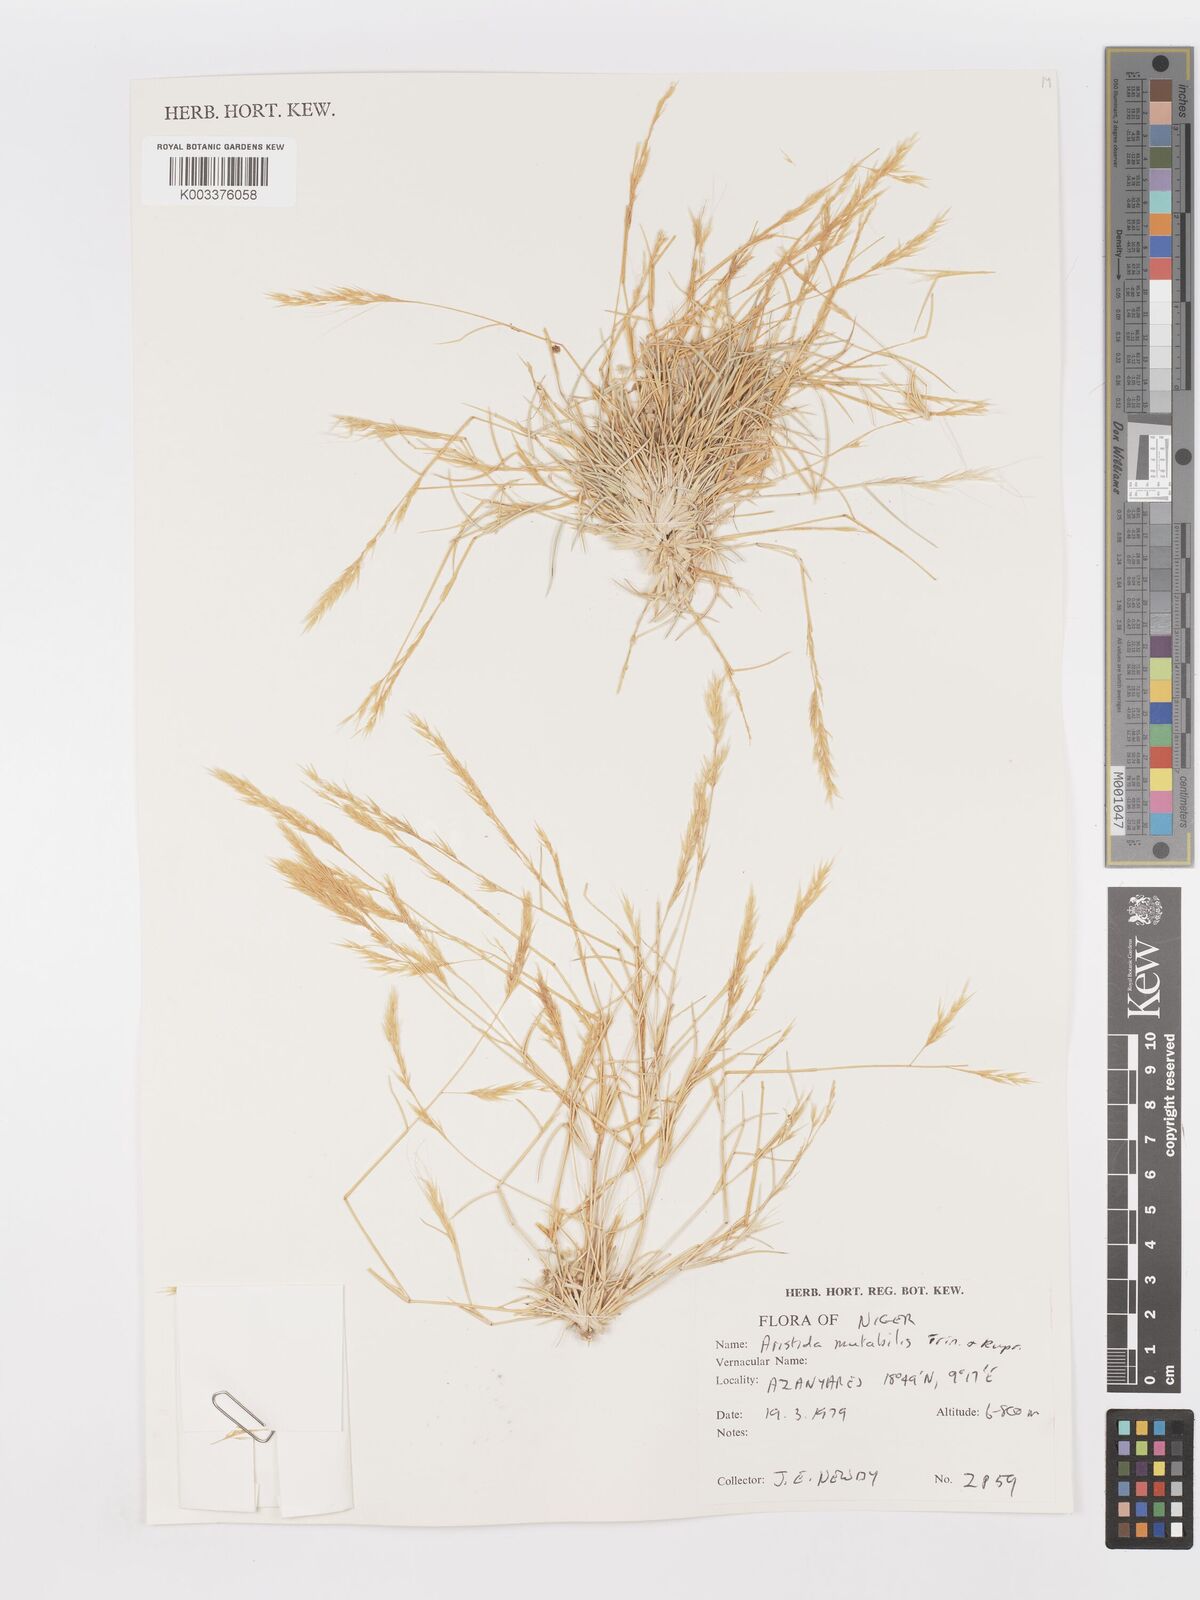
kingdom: Plantae
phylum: Tracheophyta
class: Liliopsida
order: Poales
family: Poaceae
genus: Aristida
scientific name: Aristida mutabilis
